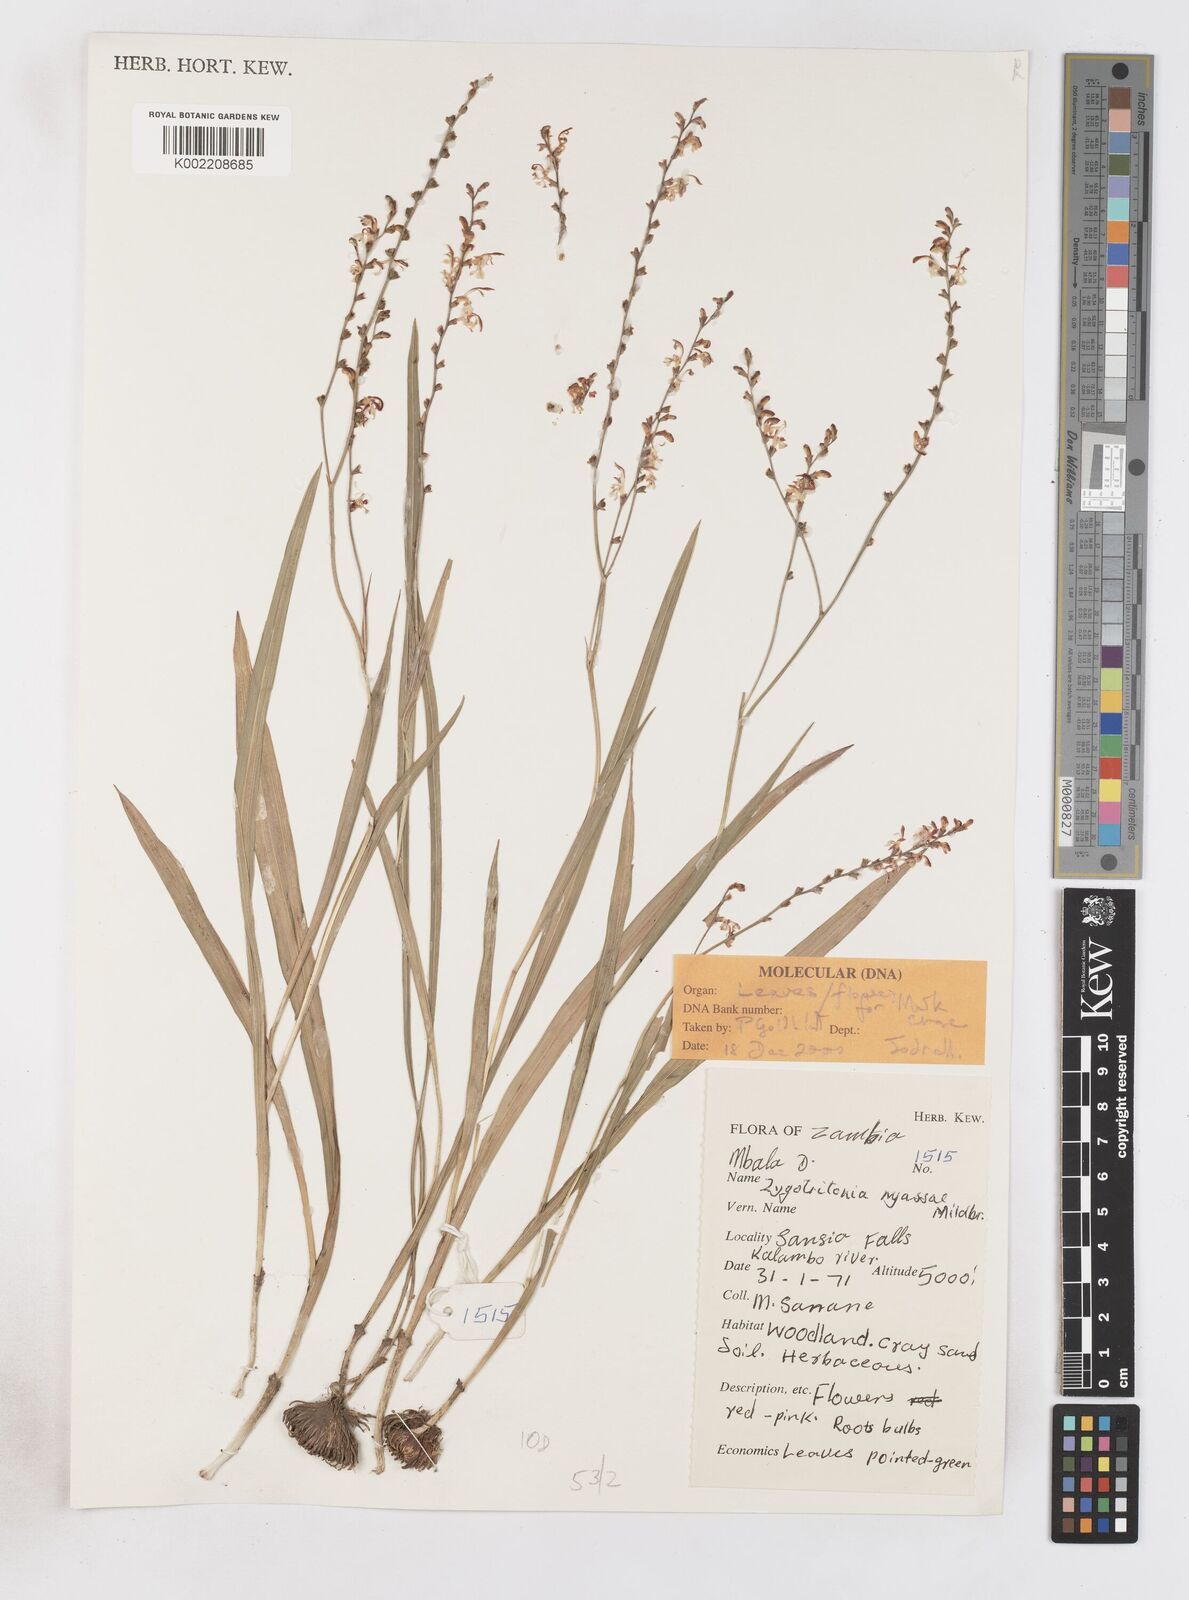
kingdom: Plantae
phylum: Tracheophyta
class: Liliopsida
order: Asparagales
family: Iridaceae
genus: Zygotritonia
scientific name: Zygotritonia nyassana
